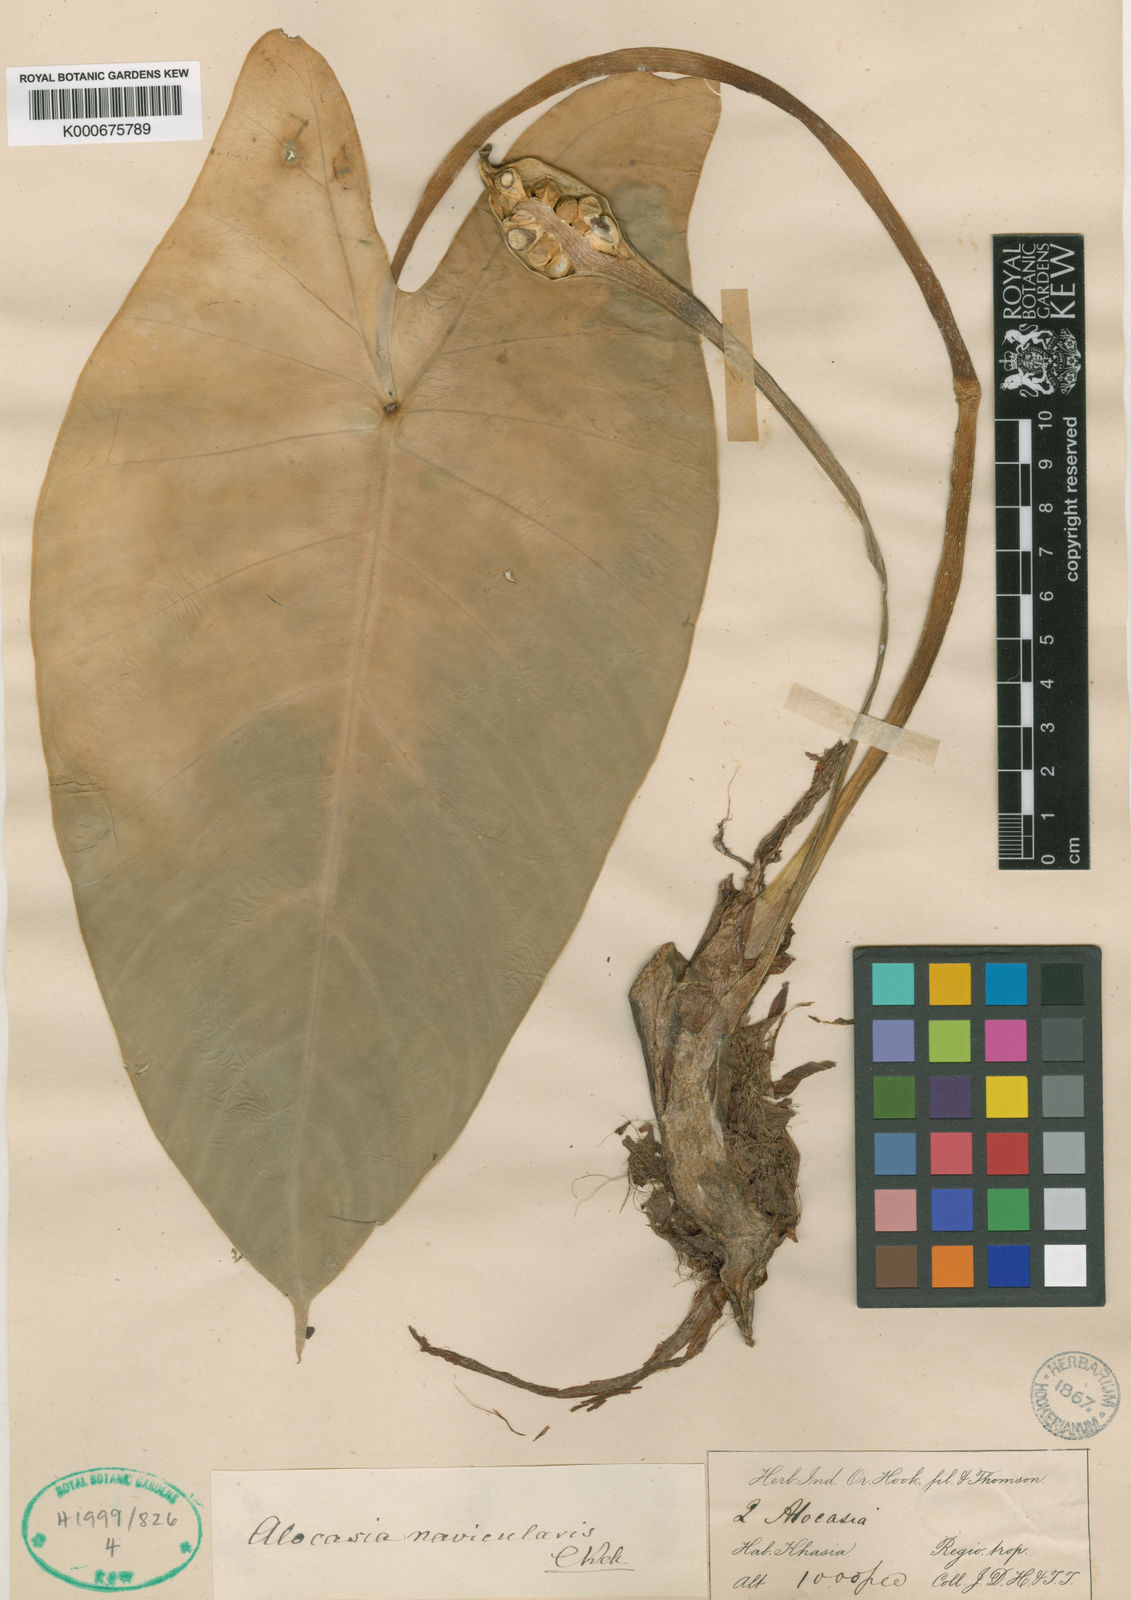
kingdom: Plantae
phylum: Tracheophyta
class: Liliopsida
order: Alismatales
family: Araceae
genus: Alocasia
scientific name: Alocasia
